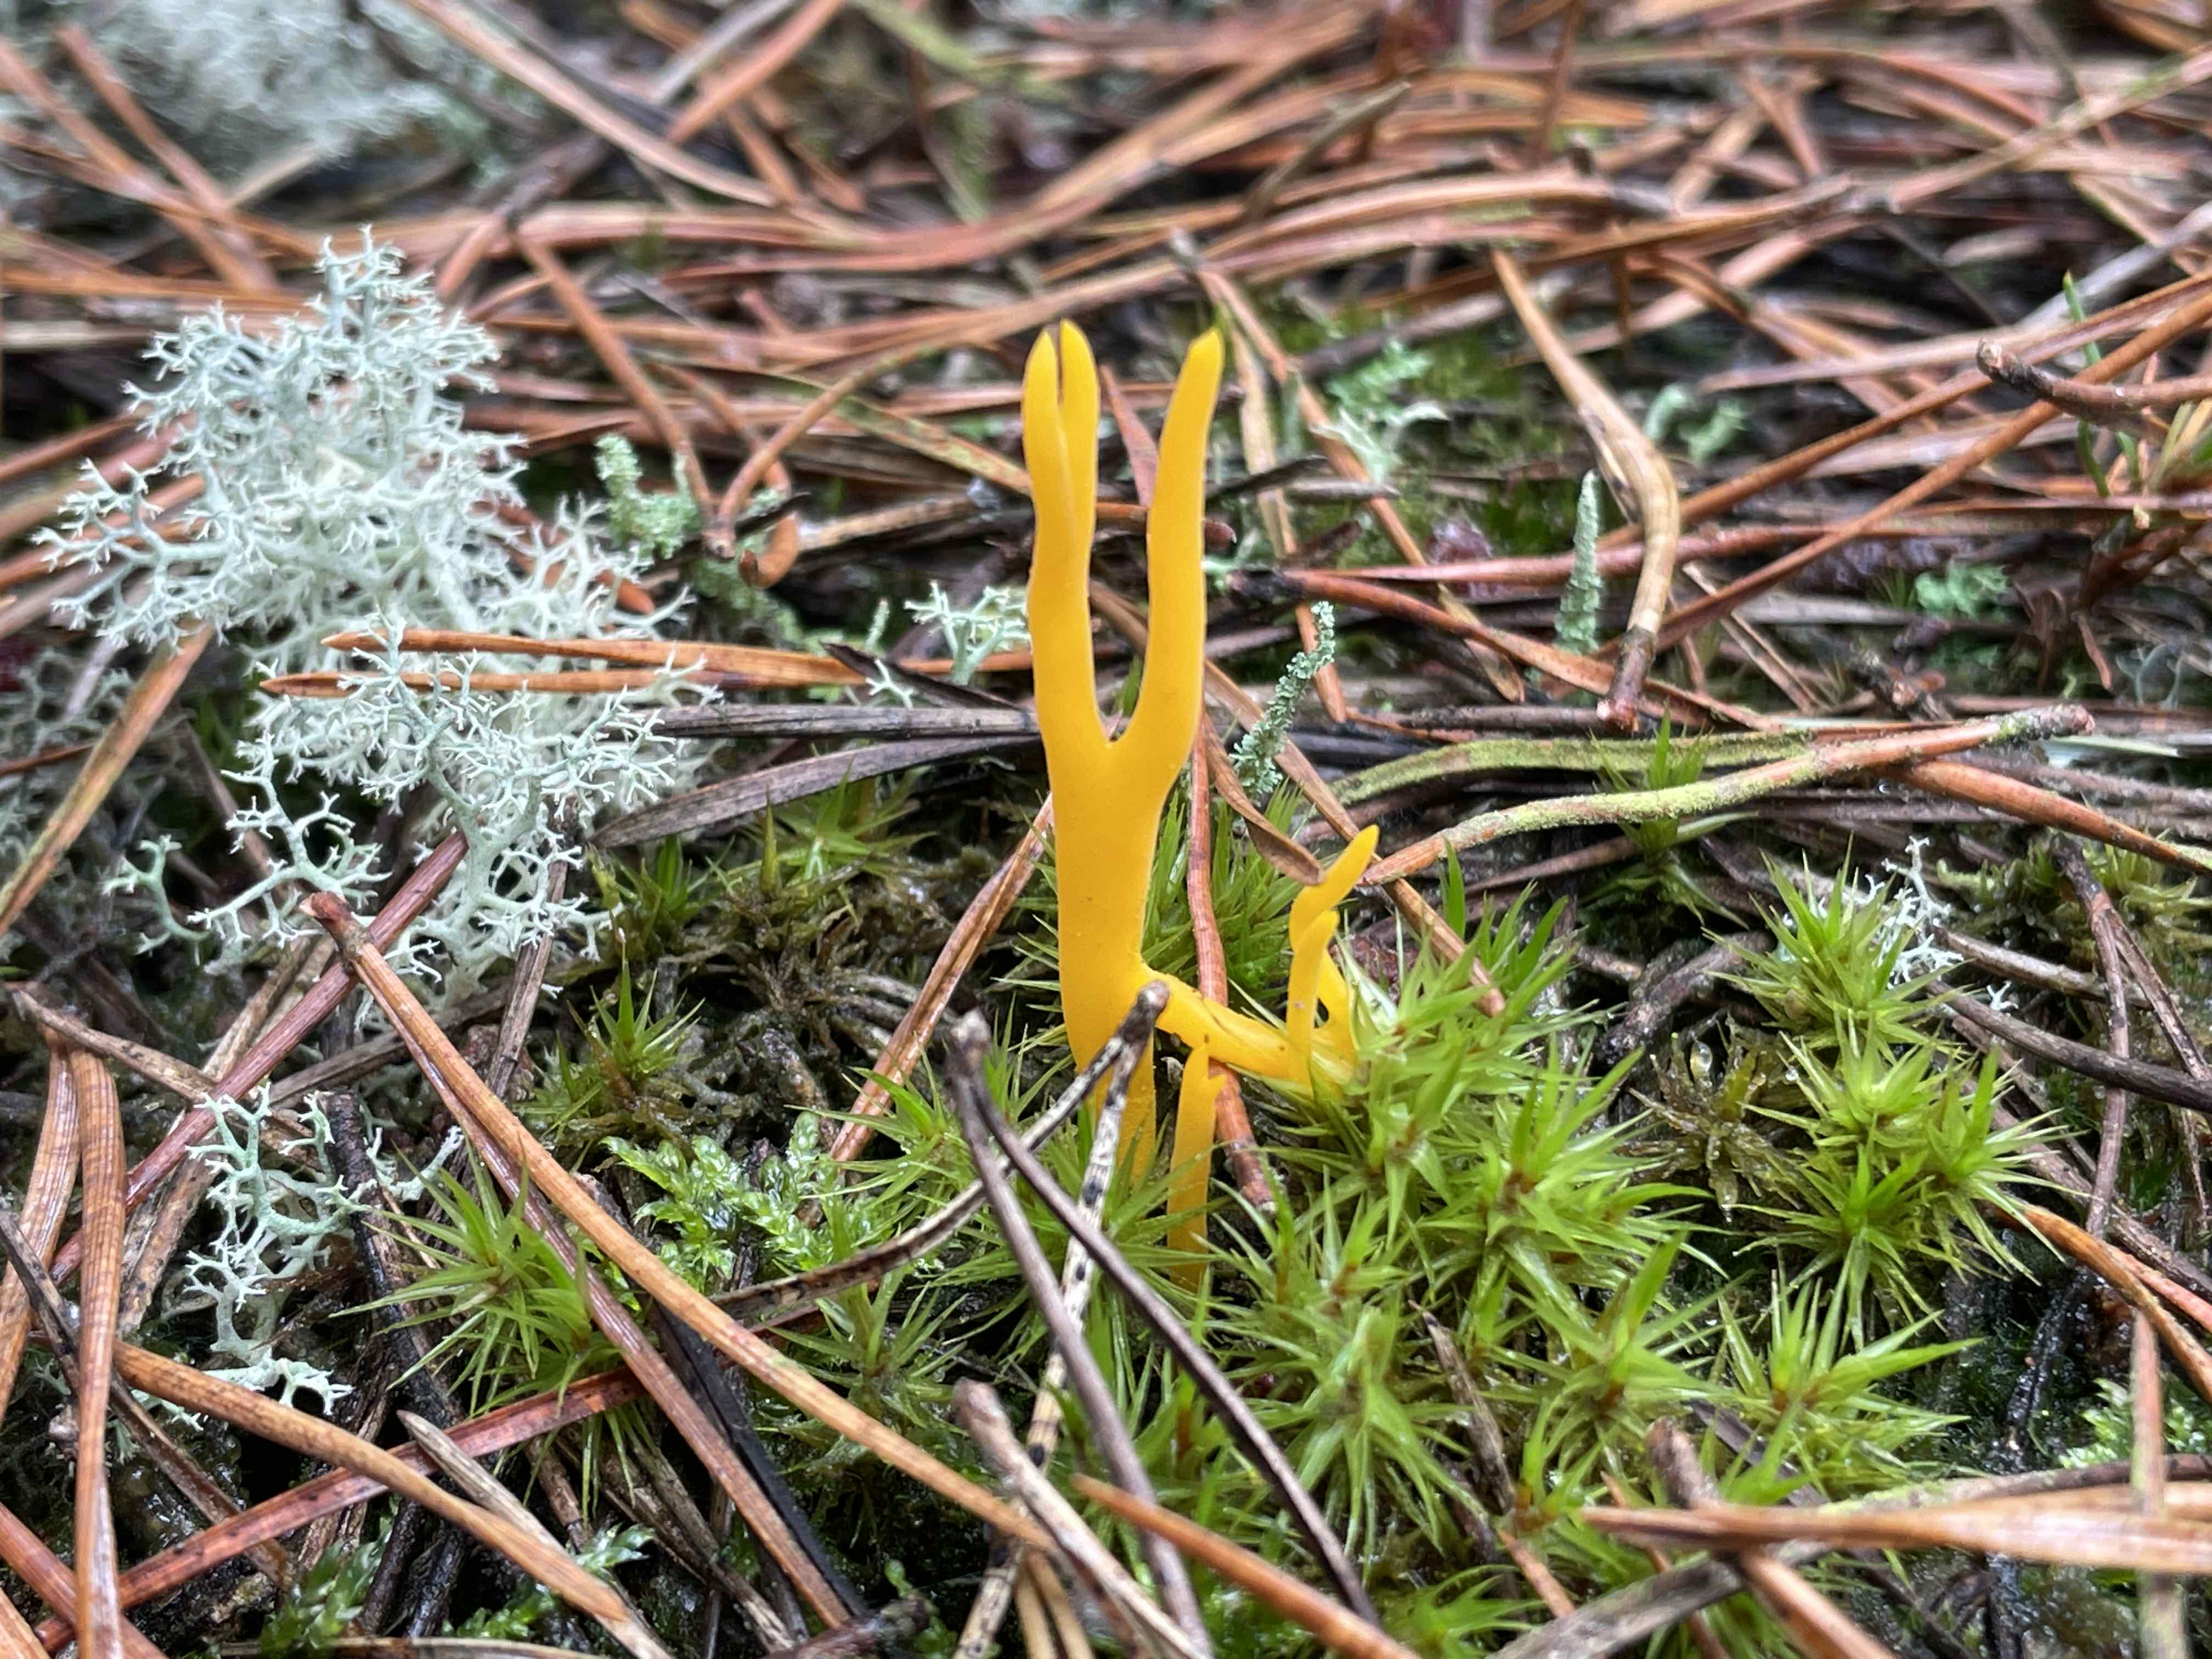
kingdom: Fungi
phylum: Basidiomycota
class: Dacrymycetes
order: Dacrymycetales
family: Dacrymycetaceae
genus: Calocera
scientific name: Calocera viscosa
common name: almindelig guldgaffel
